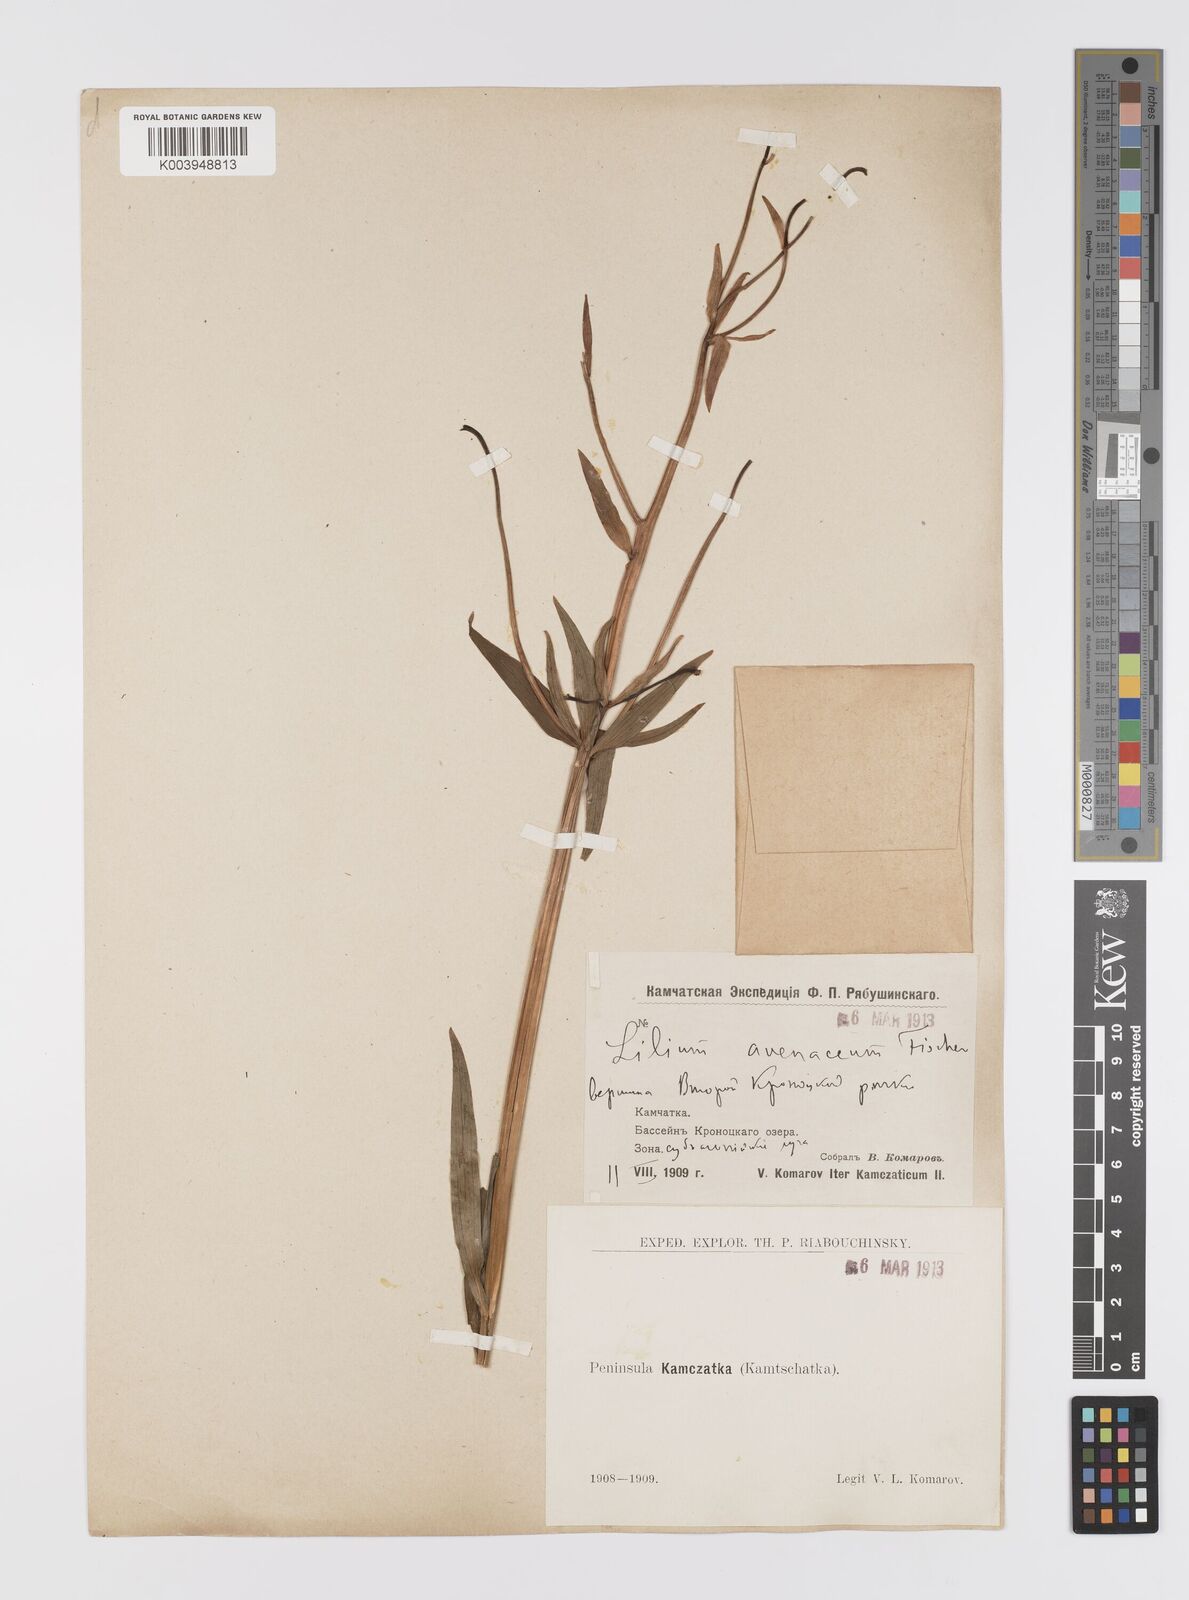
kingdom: Plantae
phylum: Tracheophyta
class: Liliopsida
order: Liliales
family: Liliaceae
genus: Lilium
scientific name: Lilium medeoloides
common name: Wheel lily
